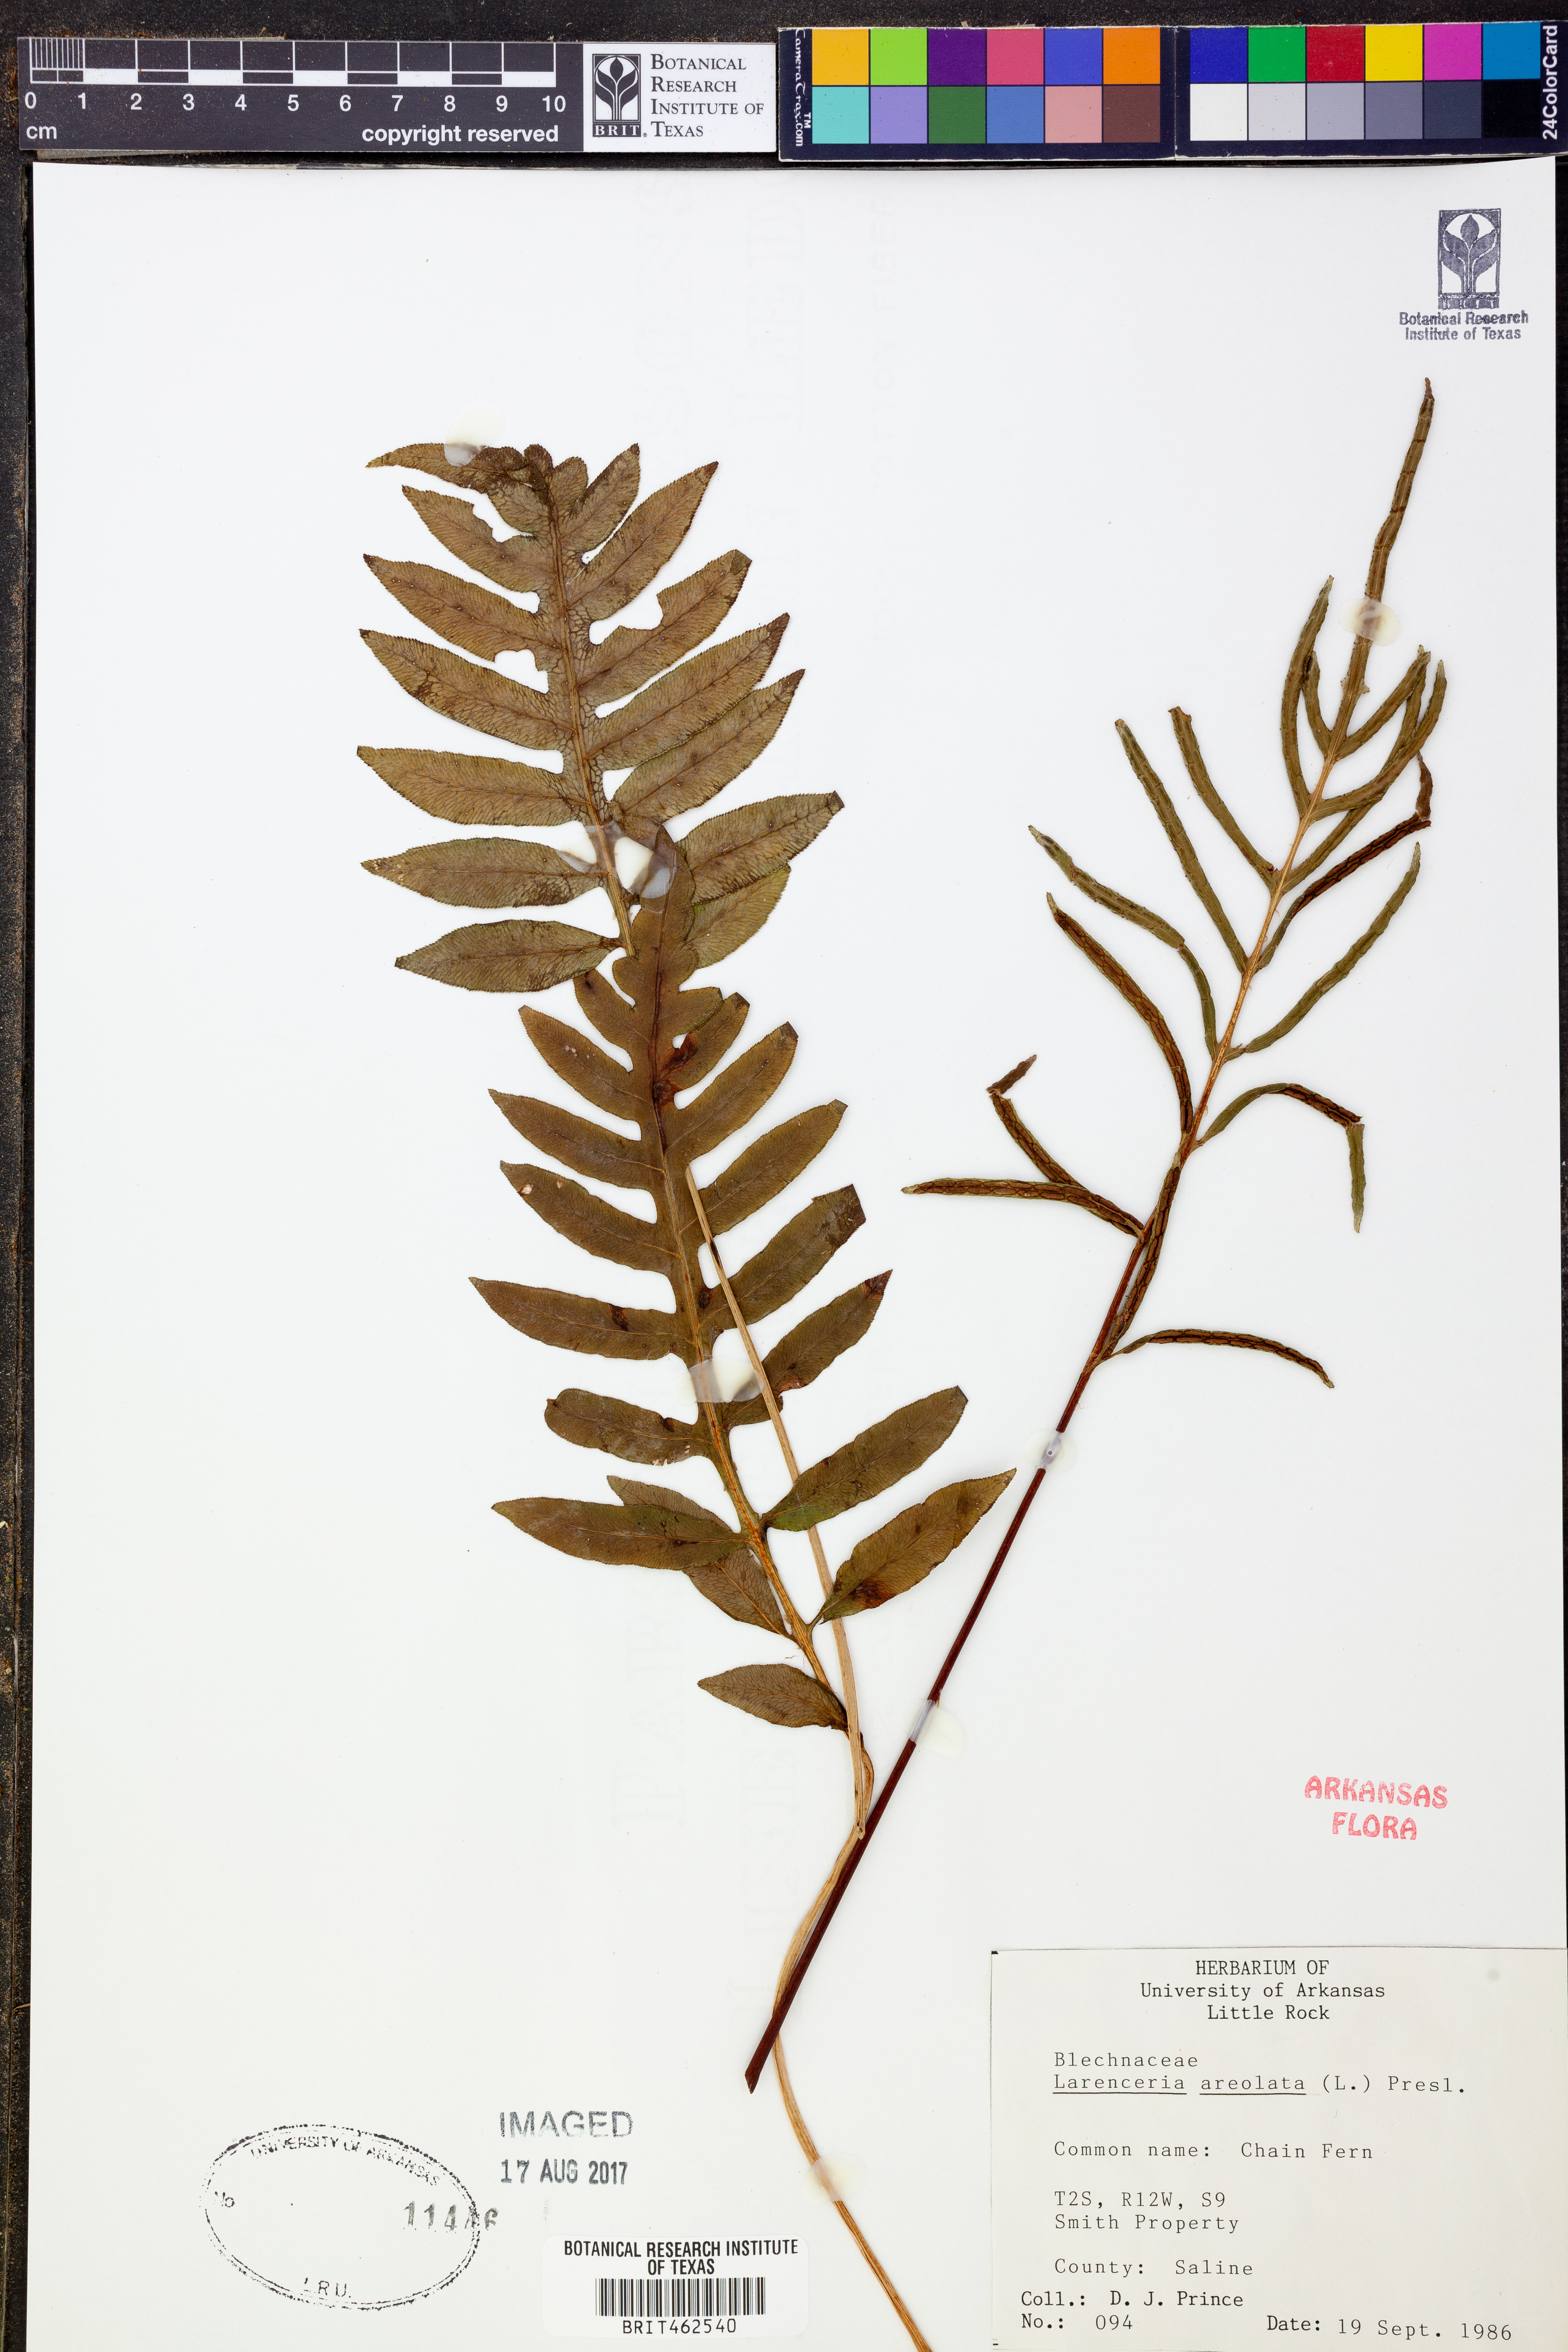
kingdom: Plantae
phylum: Tracheophyta
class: Polypodiopsida
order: Polypodiales
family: Blechnaceae
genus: Lorinseria
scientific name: Lorinseria areolata
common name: Dwarf chain fern
